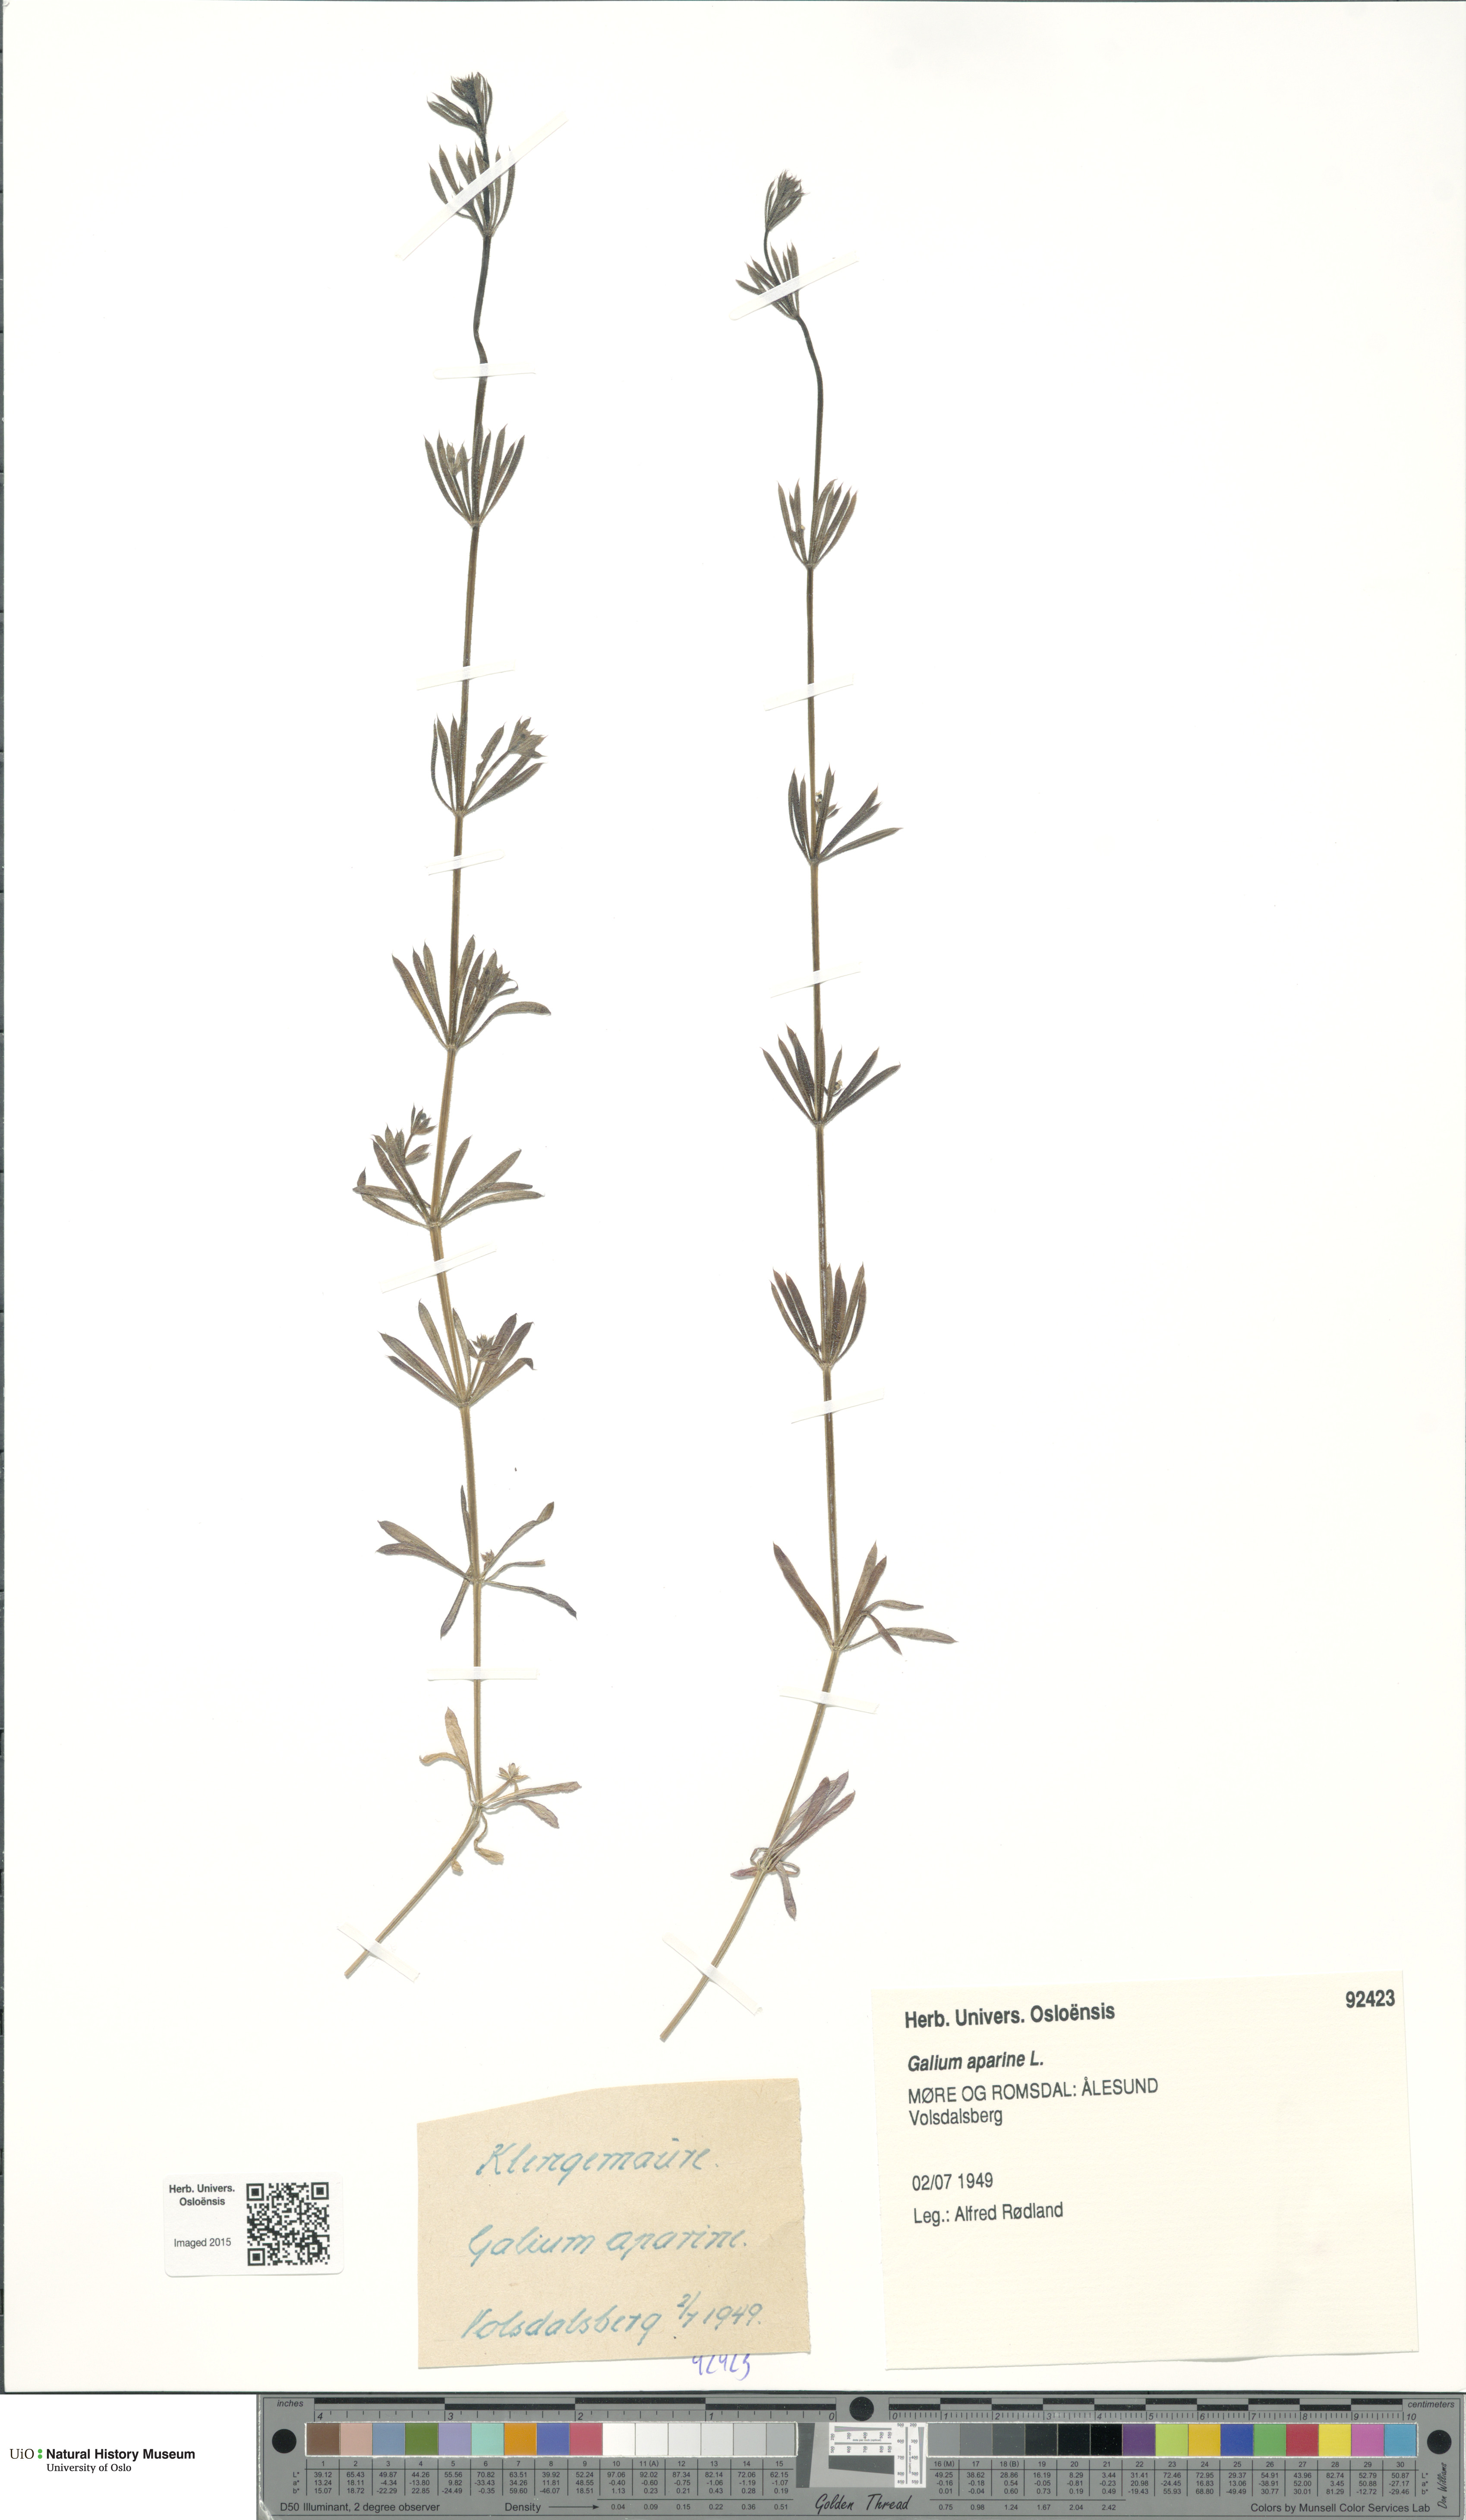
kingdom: Plantae
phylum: Tracheophyta
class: Magnoliopsida
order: Gentianales
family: Rubiaceae
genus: Galium
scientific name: Galium aparine
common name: Cleavers
